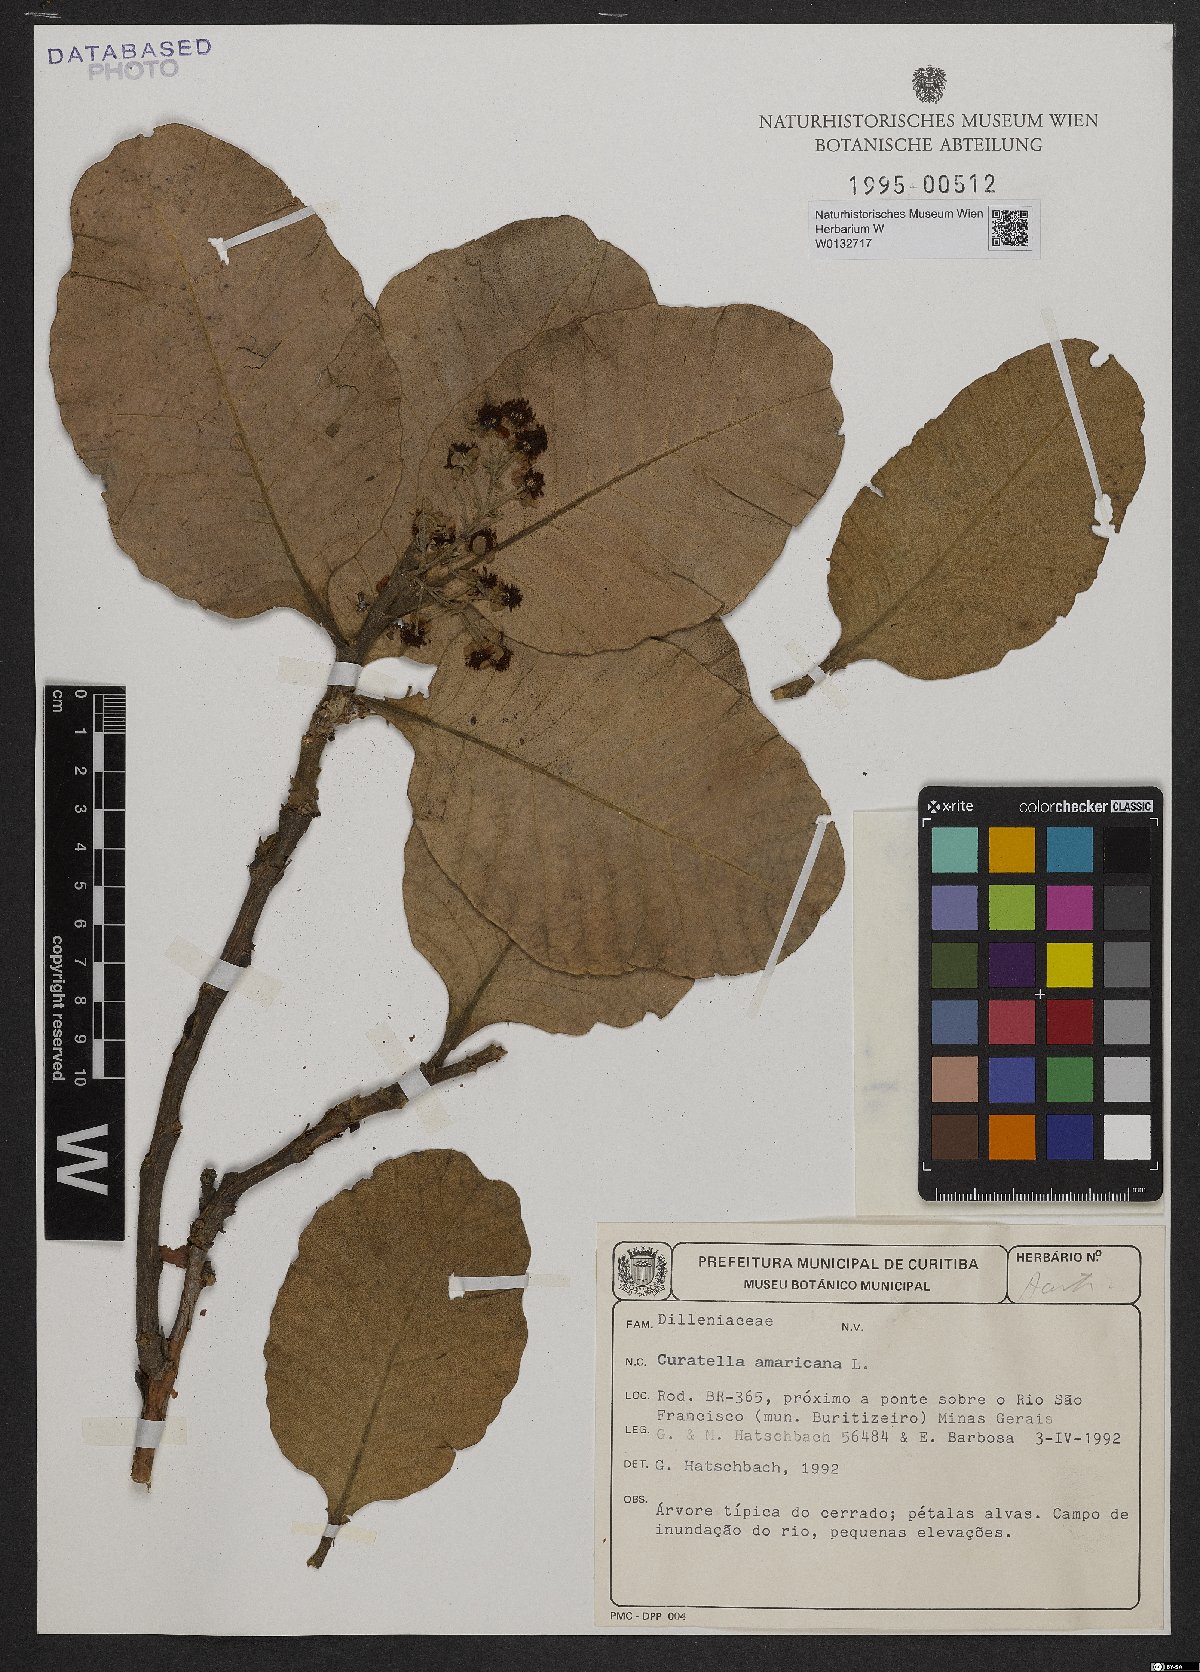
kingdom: Plantae
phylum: Tracheophyta
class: Magnoliopsida
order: Dilleniales
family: Dilleniaceae
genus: Curatella
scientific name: Curatella americana
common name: Sandpaper tree
